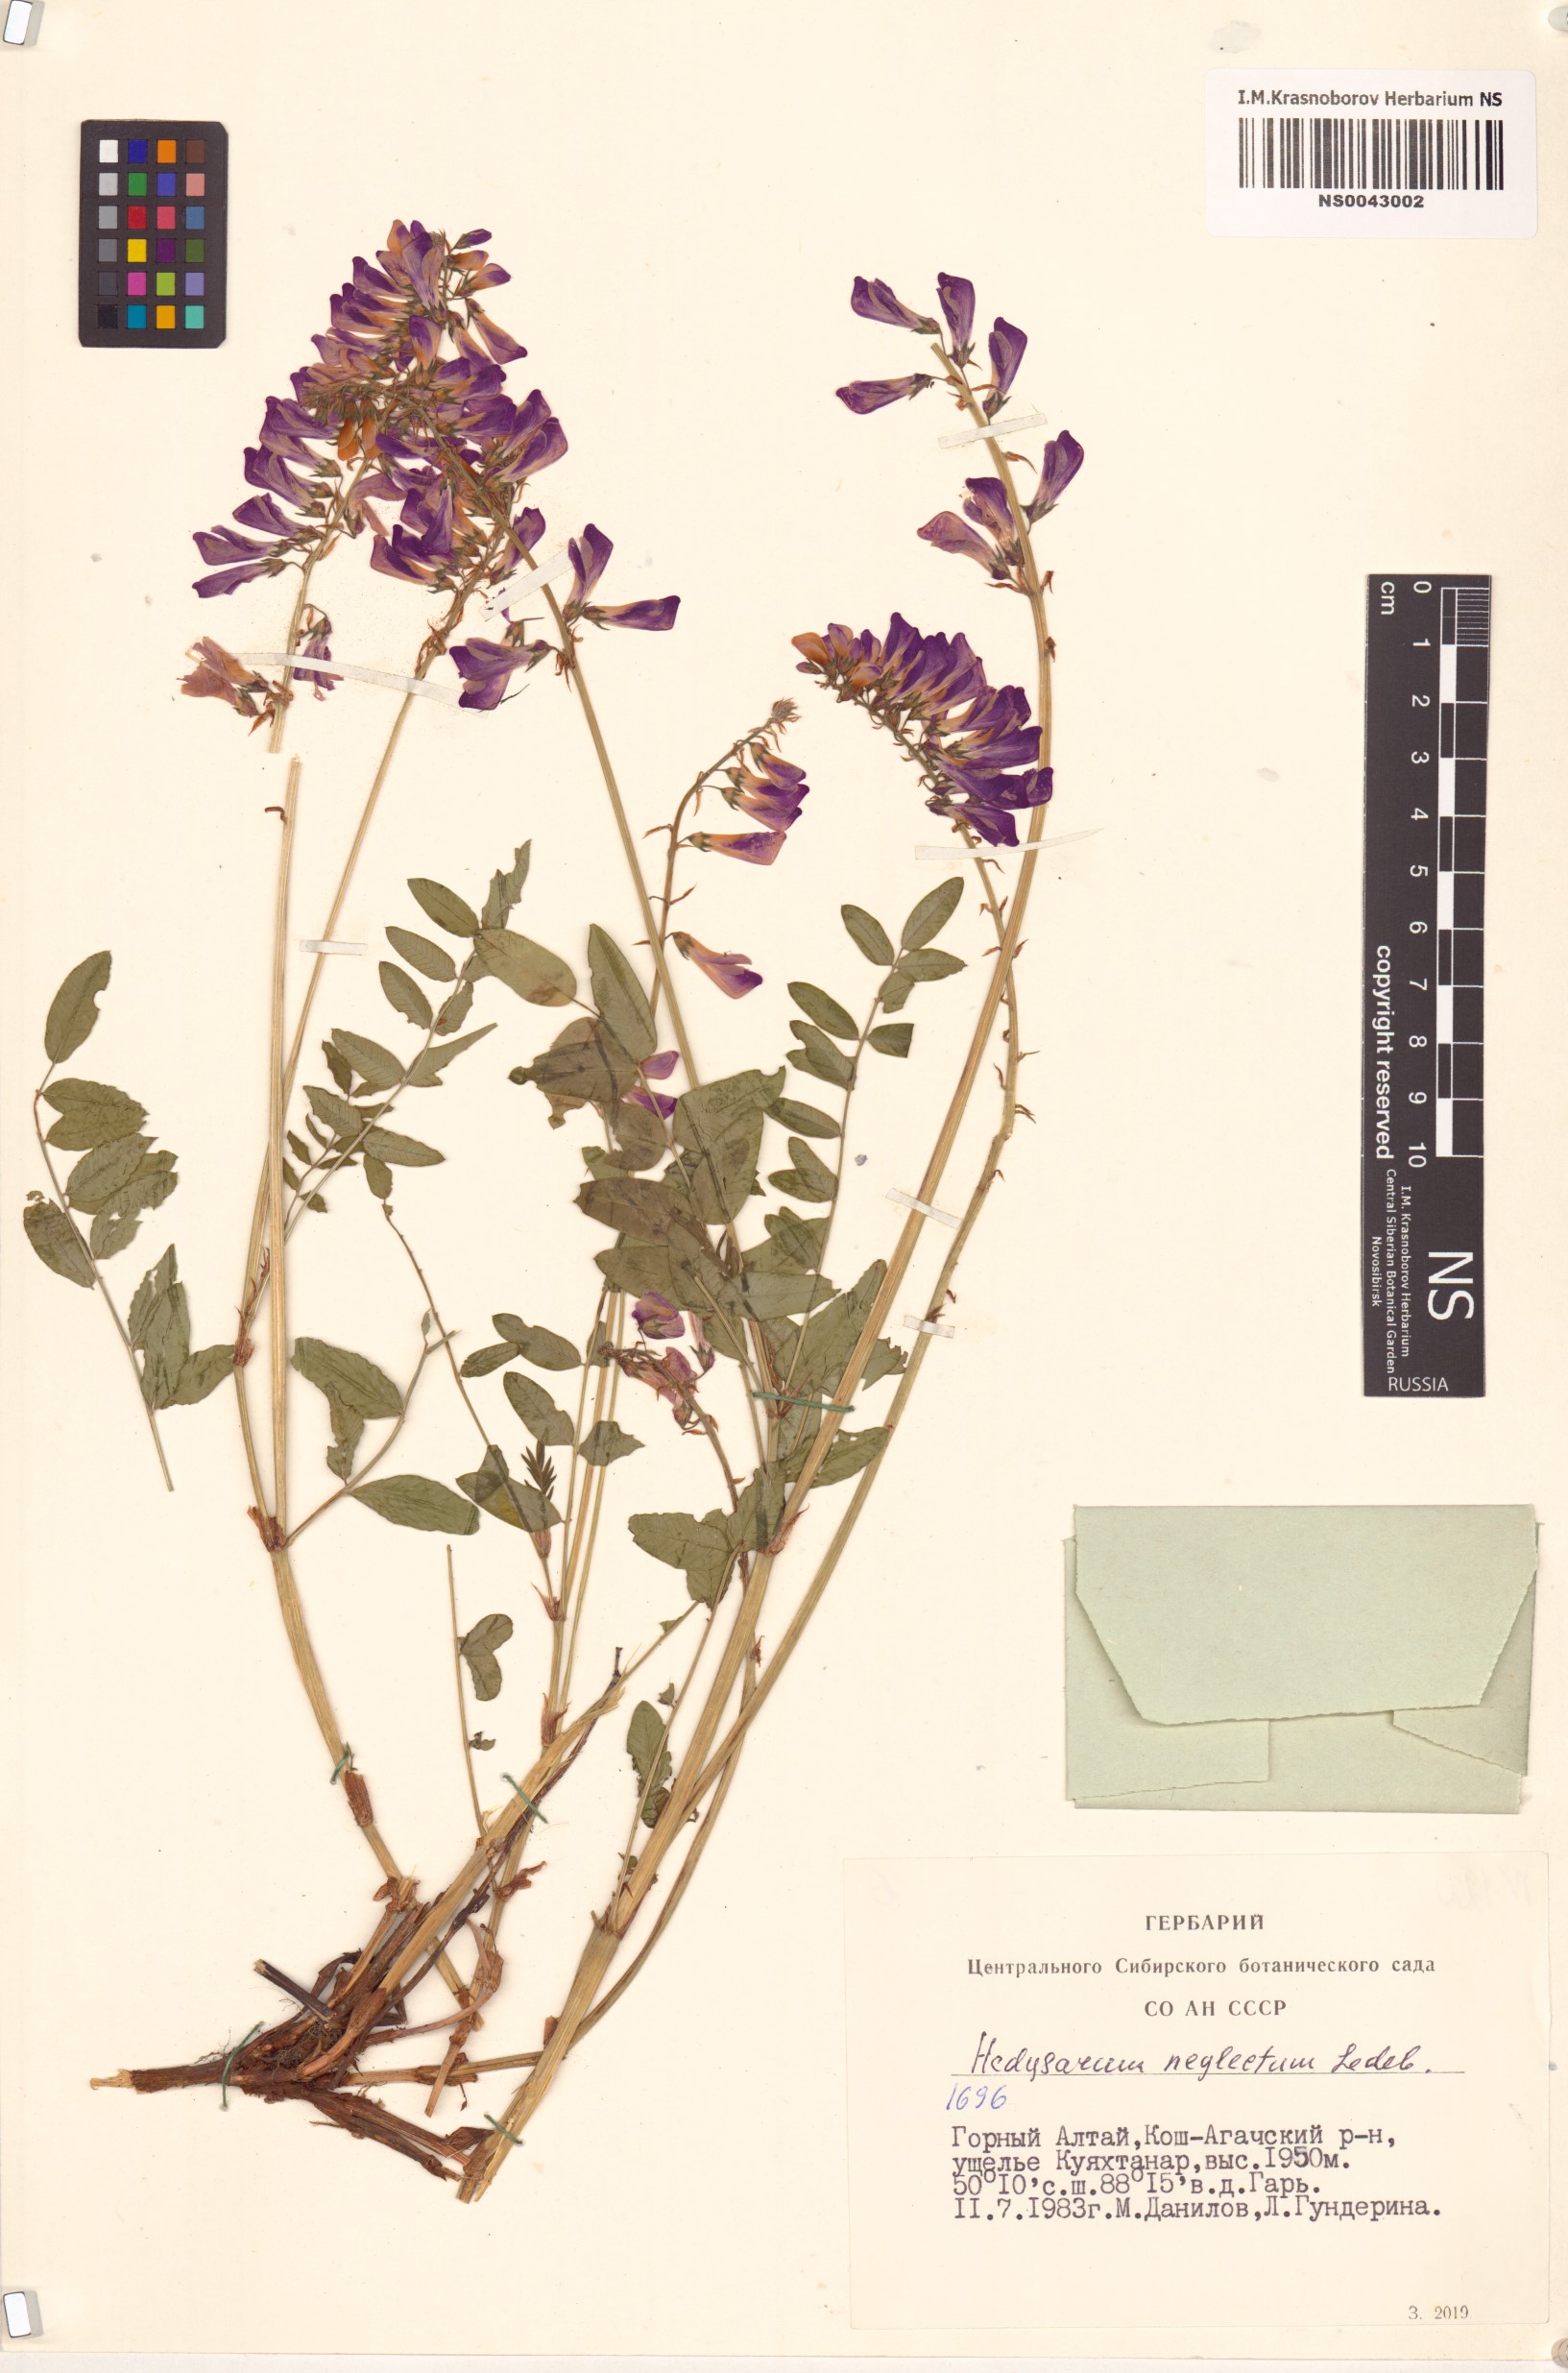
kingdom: Plantae
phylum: Tracheophyta
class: Magnoliopsida
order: Fabales
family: Fabaceae
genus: Hedysarum
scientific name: Hedysarum neglectum
